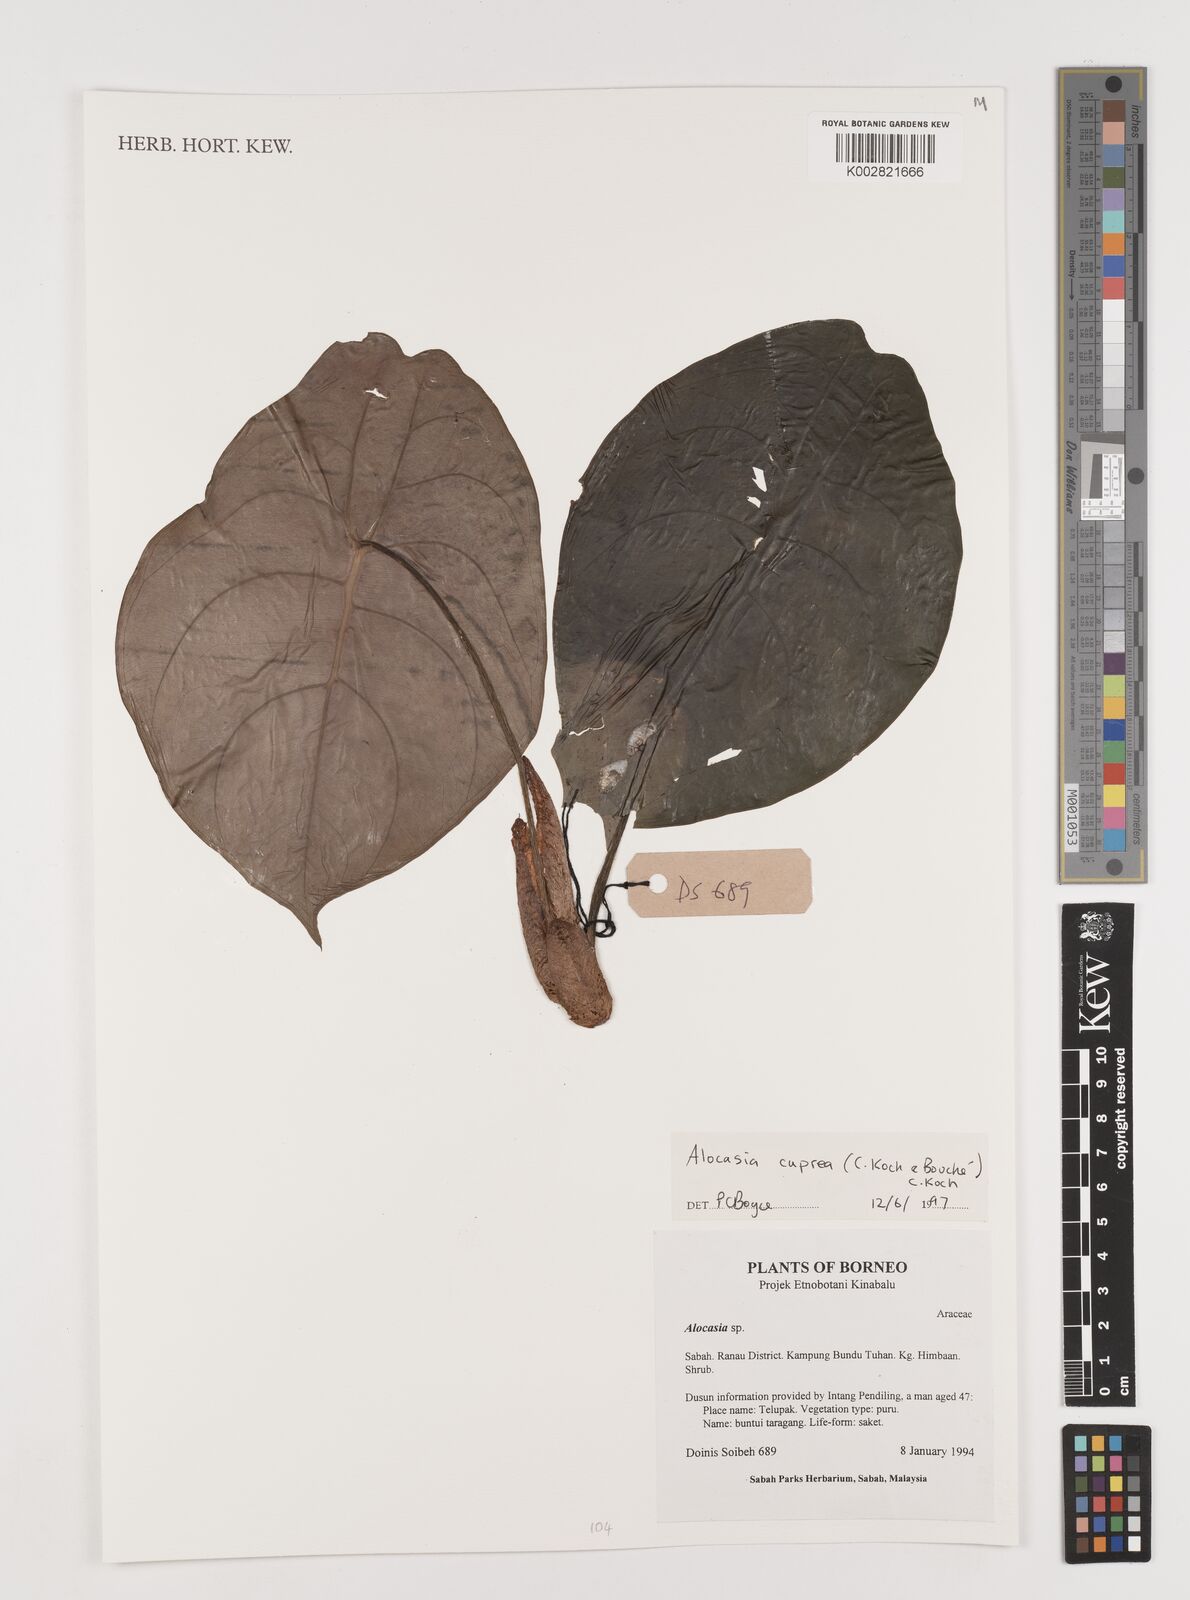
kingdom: Plantae
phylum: Tracheophyta
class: Liliopsida
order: Alismatales
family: Araceae
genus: Alocasia
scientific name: Alocasia cuprea
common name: Giant caladium
